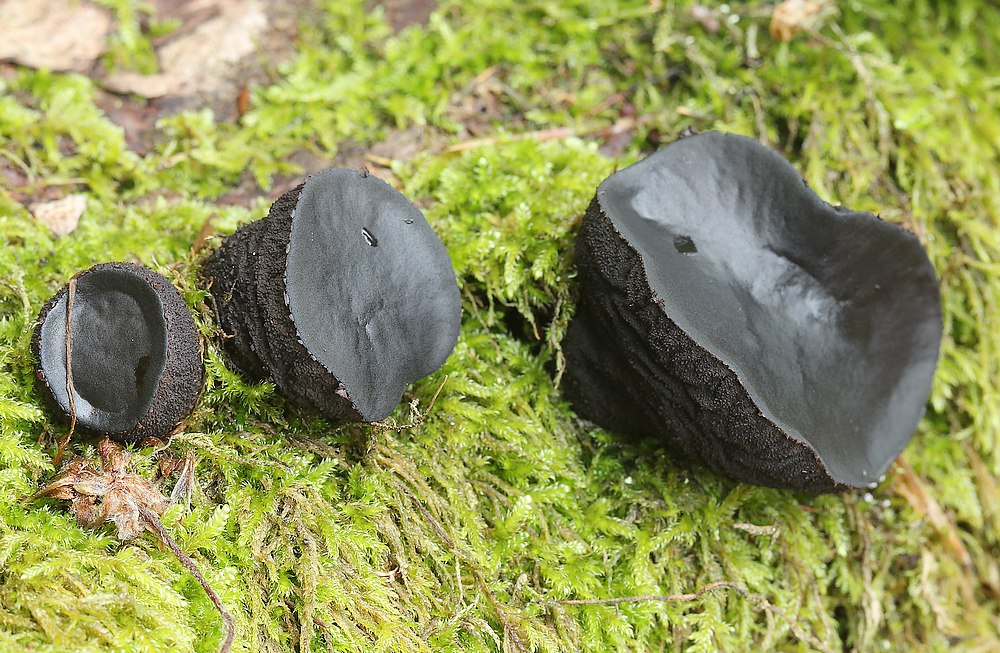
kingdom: Fungi
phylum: Ascomycota
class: Leotiomycetes
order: Phacidiales
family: Phacidiaceae
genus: Bulgaria
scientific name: Bulgaria inquinans
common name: afsmittende topsvamp
